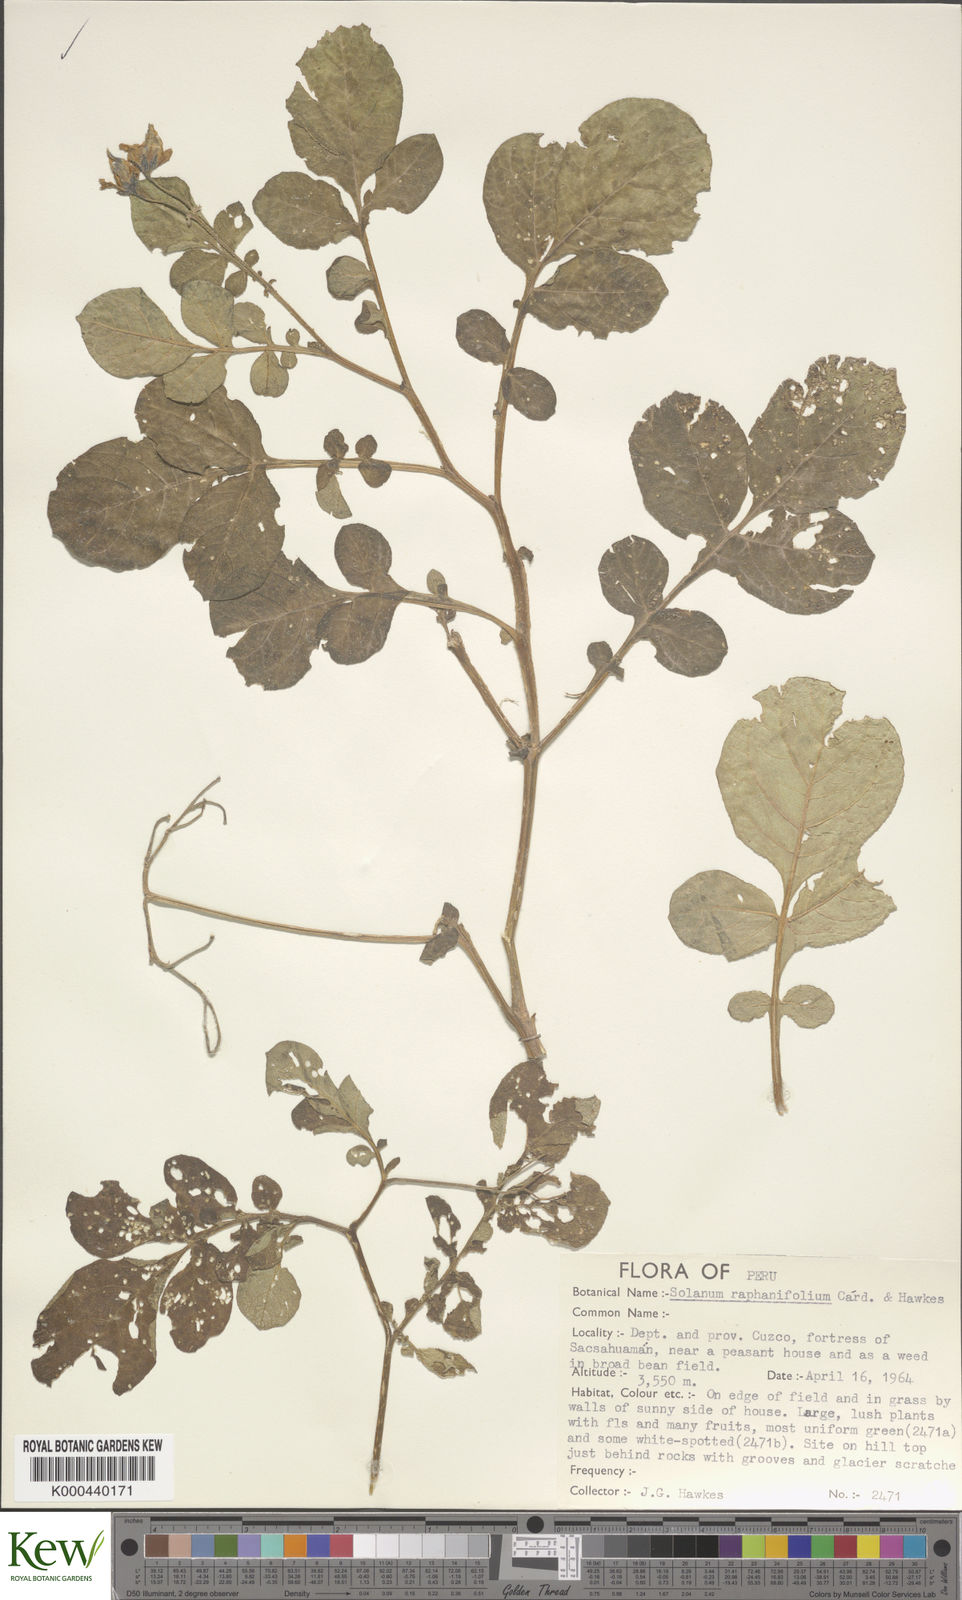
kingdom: Plantae
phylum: Tracheophyta
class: Magnoliopsida
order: Solanales
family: Solanaceae
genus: Solanum
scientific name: Solanum raphanifolium
